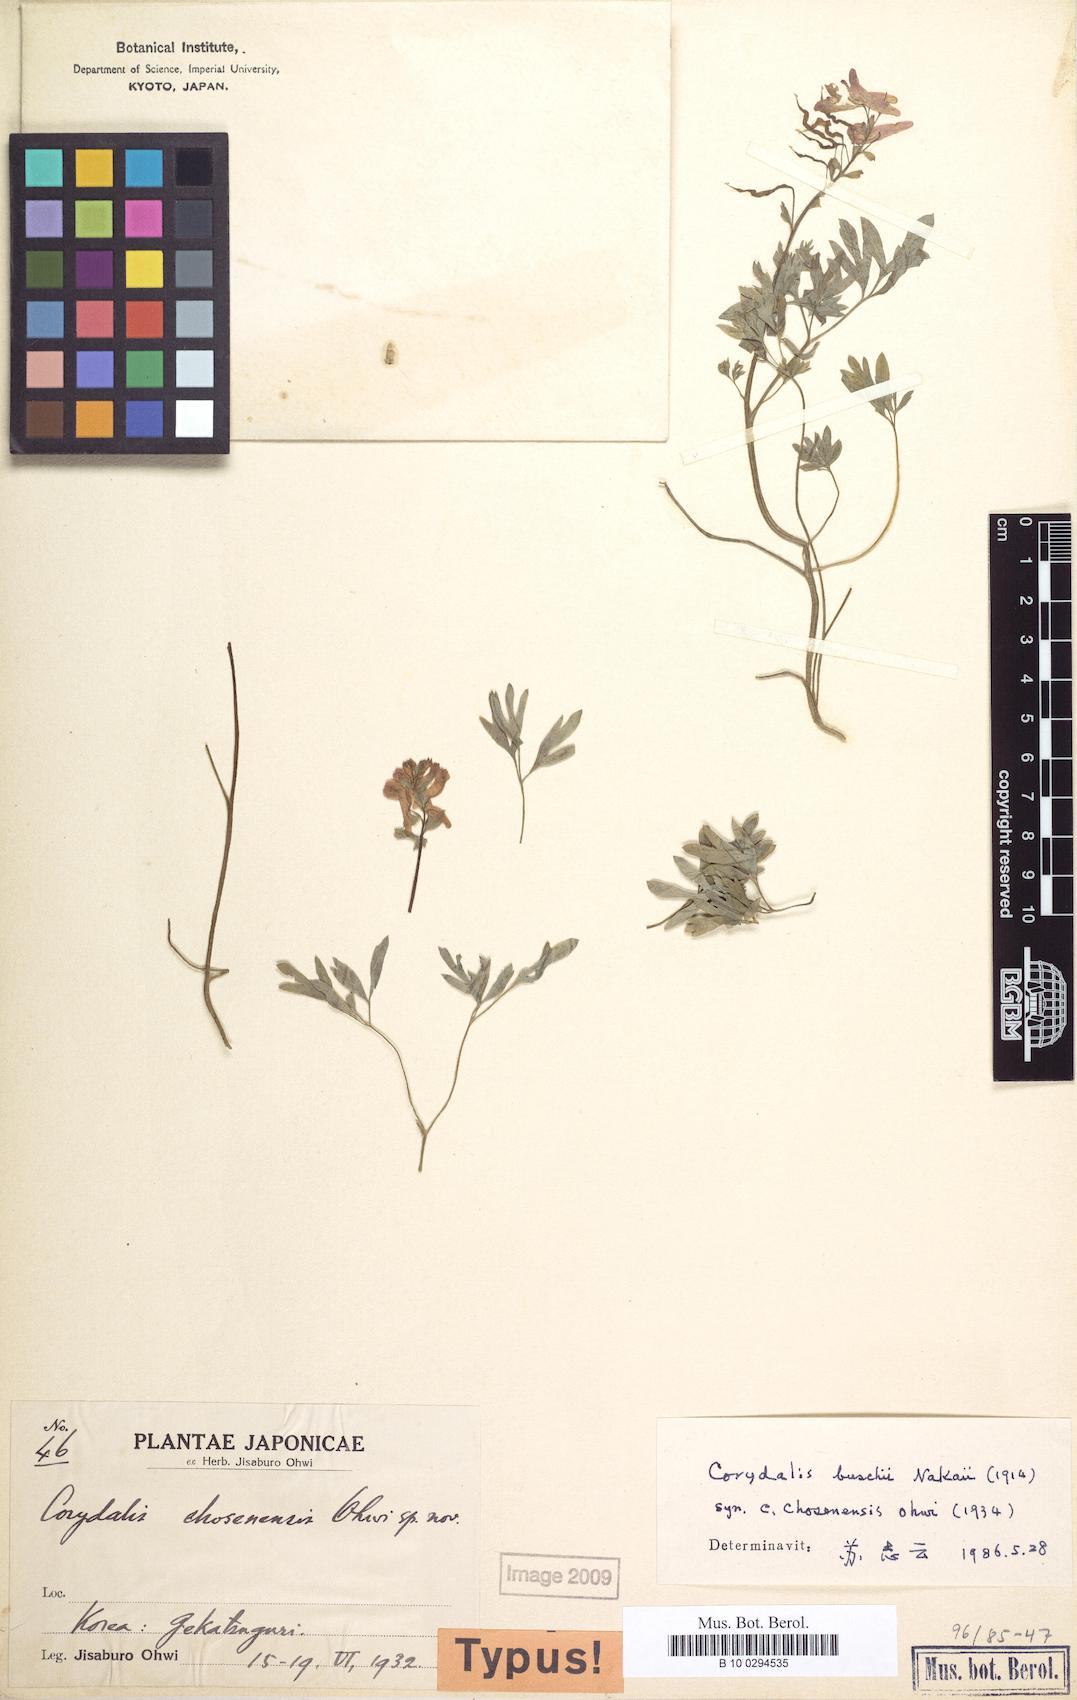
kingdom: Plantae
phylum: Tracheophyta
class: Magnoliopsida
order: Ranunculales
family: Papaveraceae
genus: Corydalis
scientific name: Corydalis buschii
